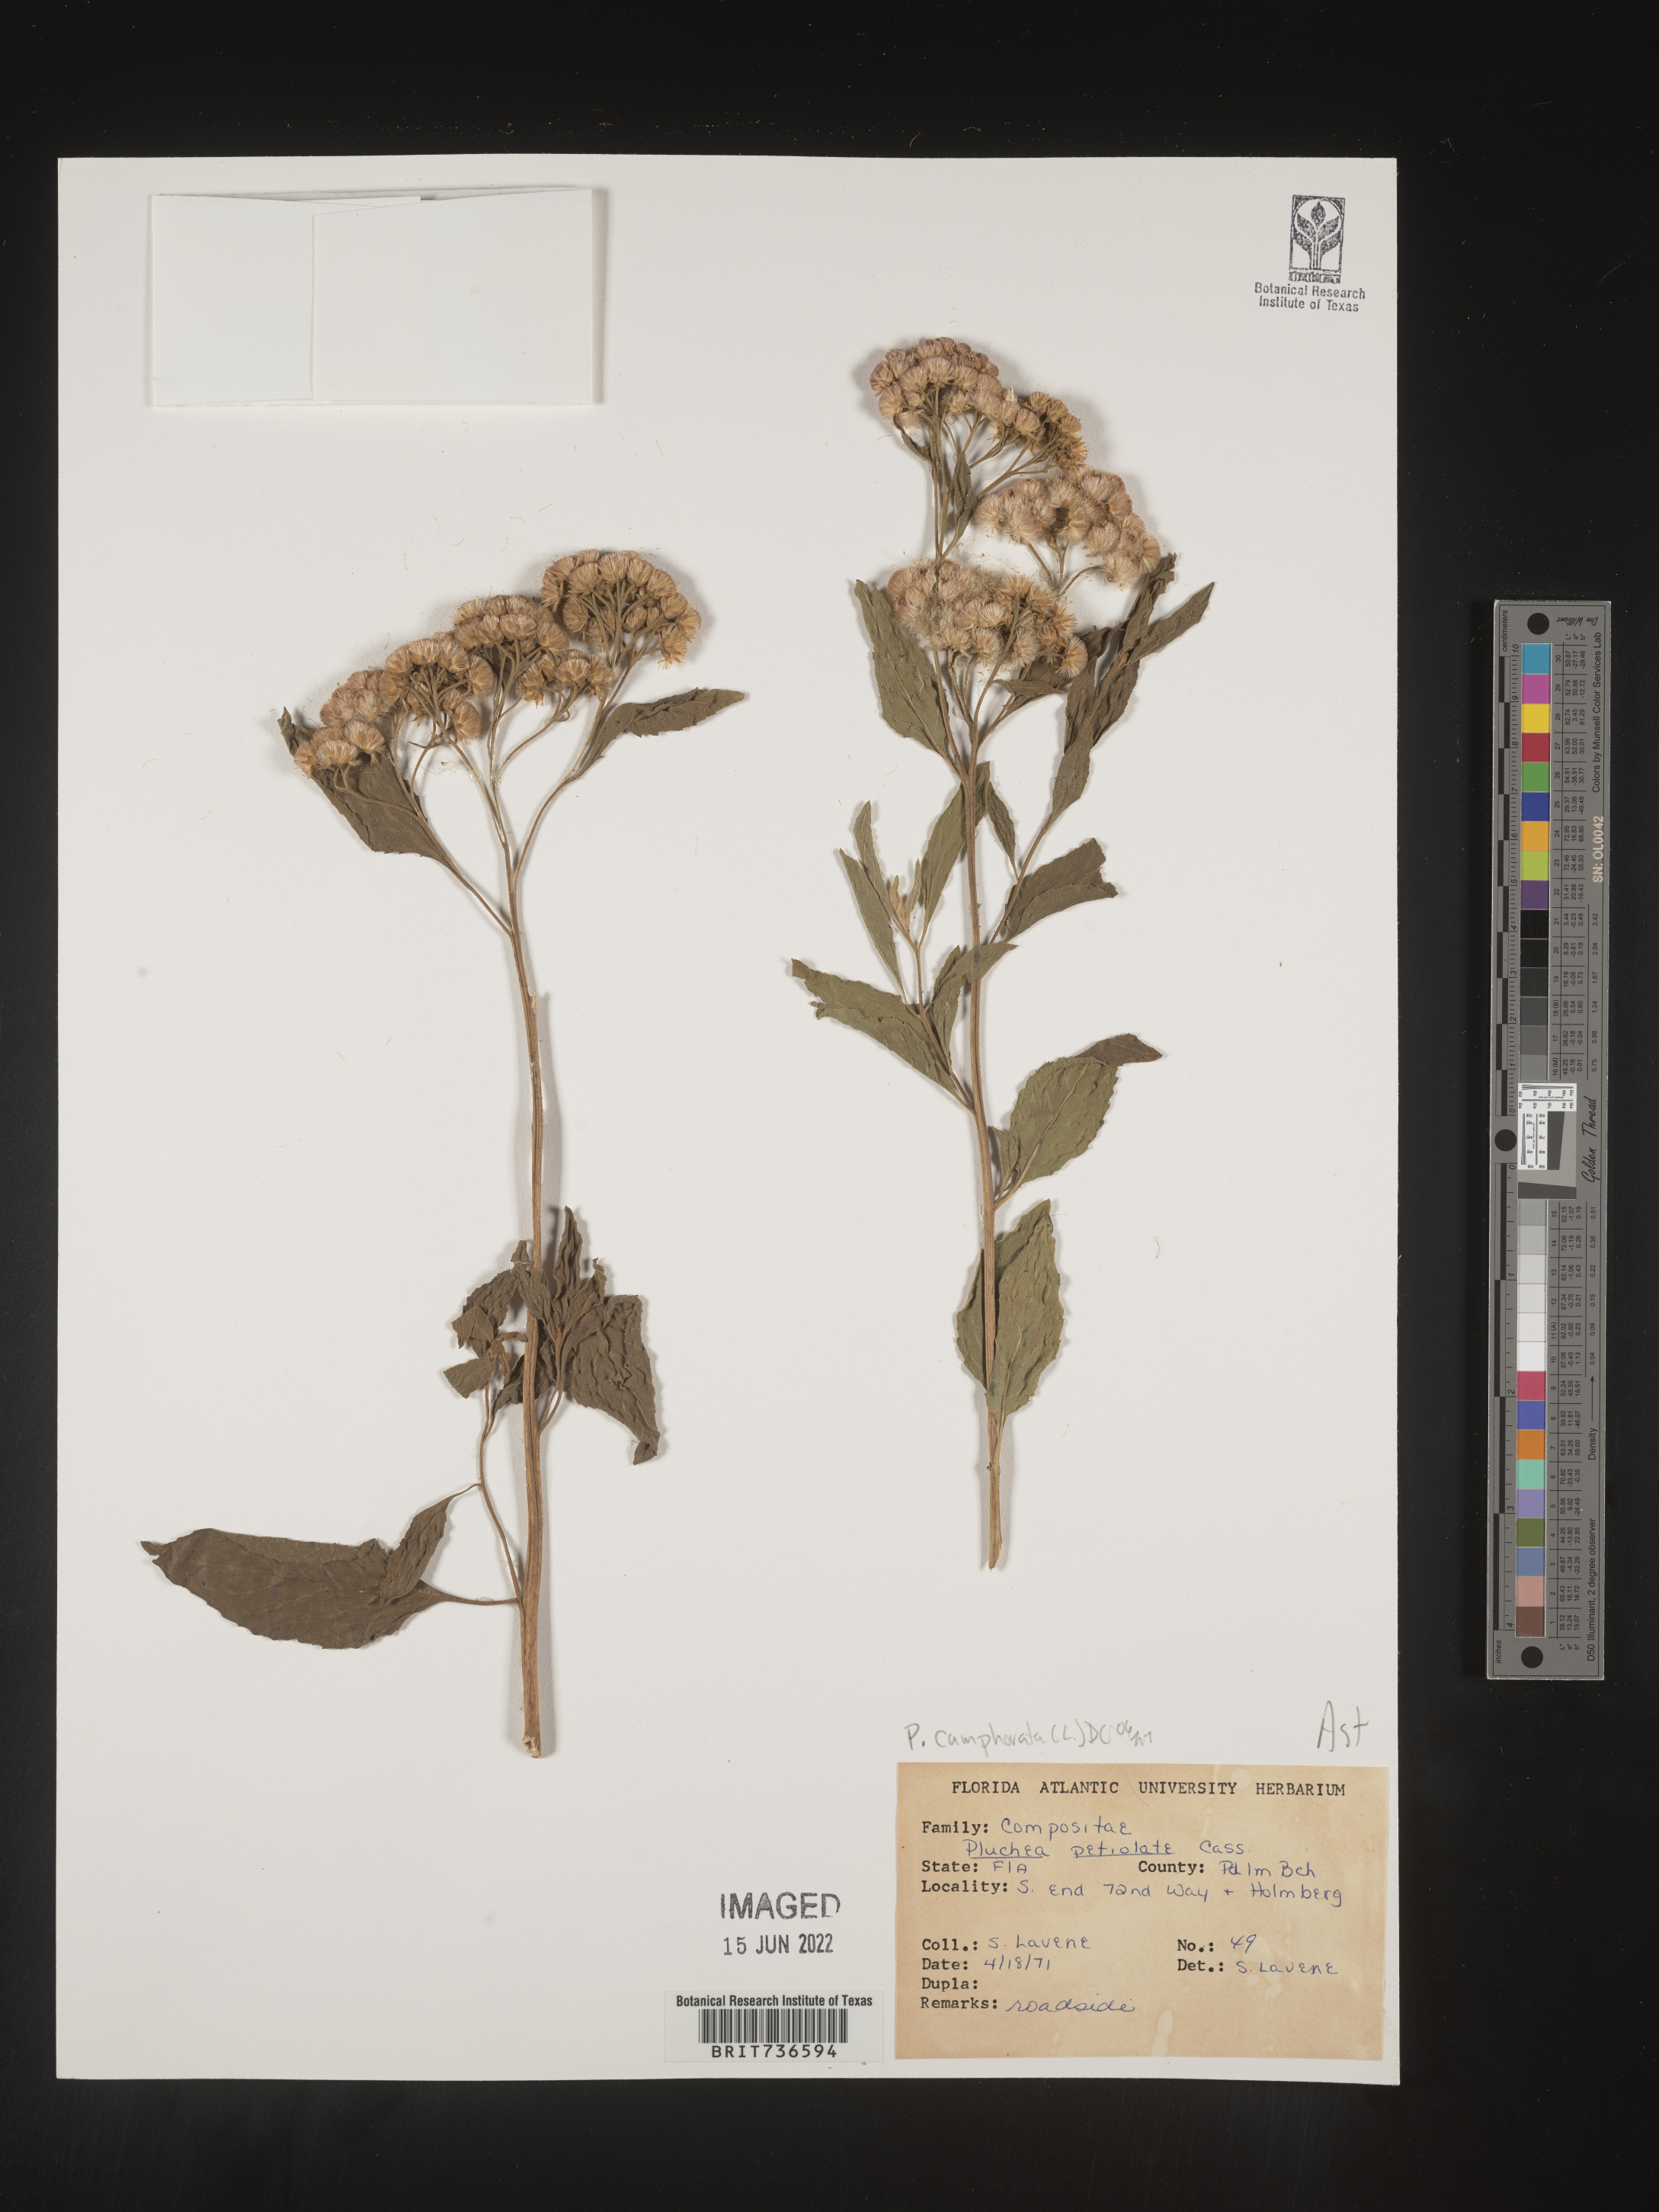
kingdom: Plantae
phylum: Tracheophyta
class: Magnoliopsida
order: Asterales
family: Asteraceae
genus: Pluchea
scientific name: Pluchea camphorata
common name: Camphor pluchea
